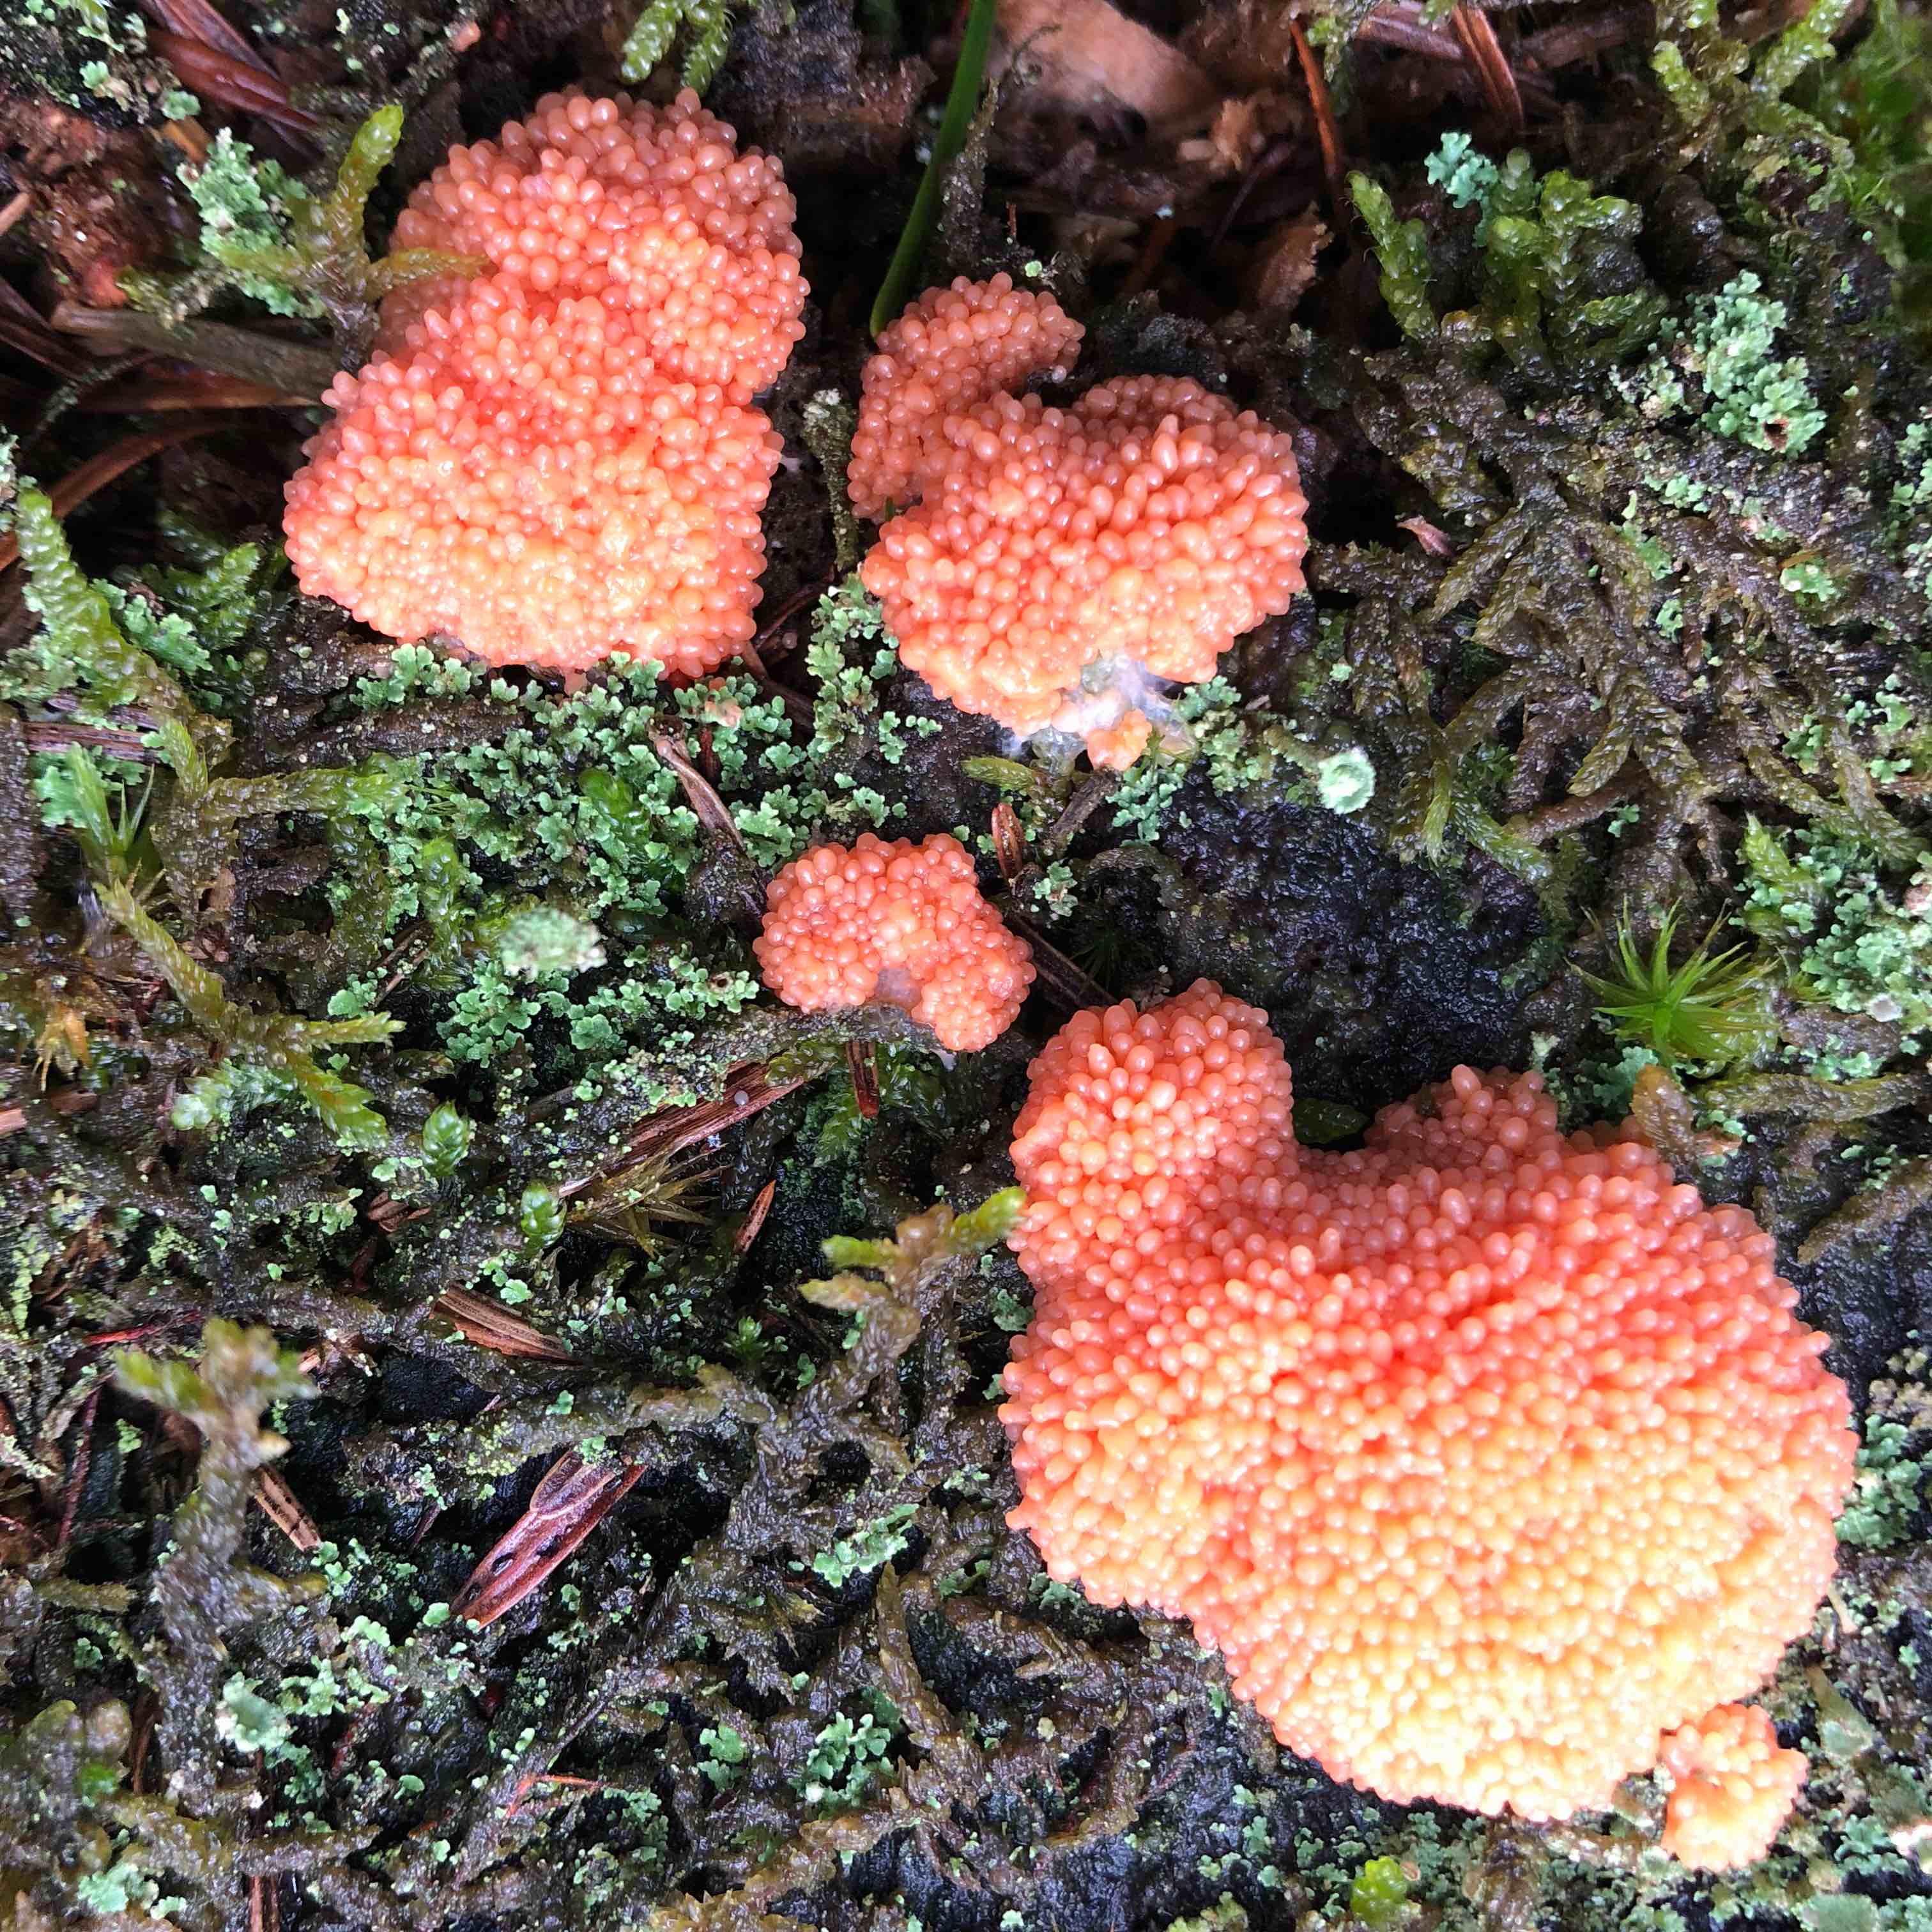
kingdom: Protozoa
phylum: Mycetozoa
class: Myxomycetes
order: Cribrariales
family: Tubiferaceae
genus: Tubifera
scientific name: Tubifera ferruginosa
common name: kanel-støvrør
